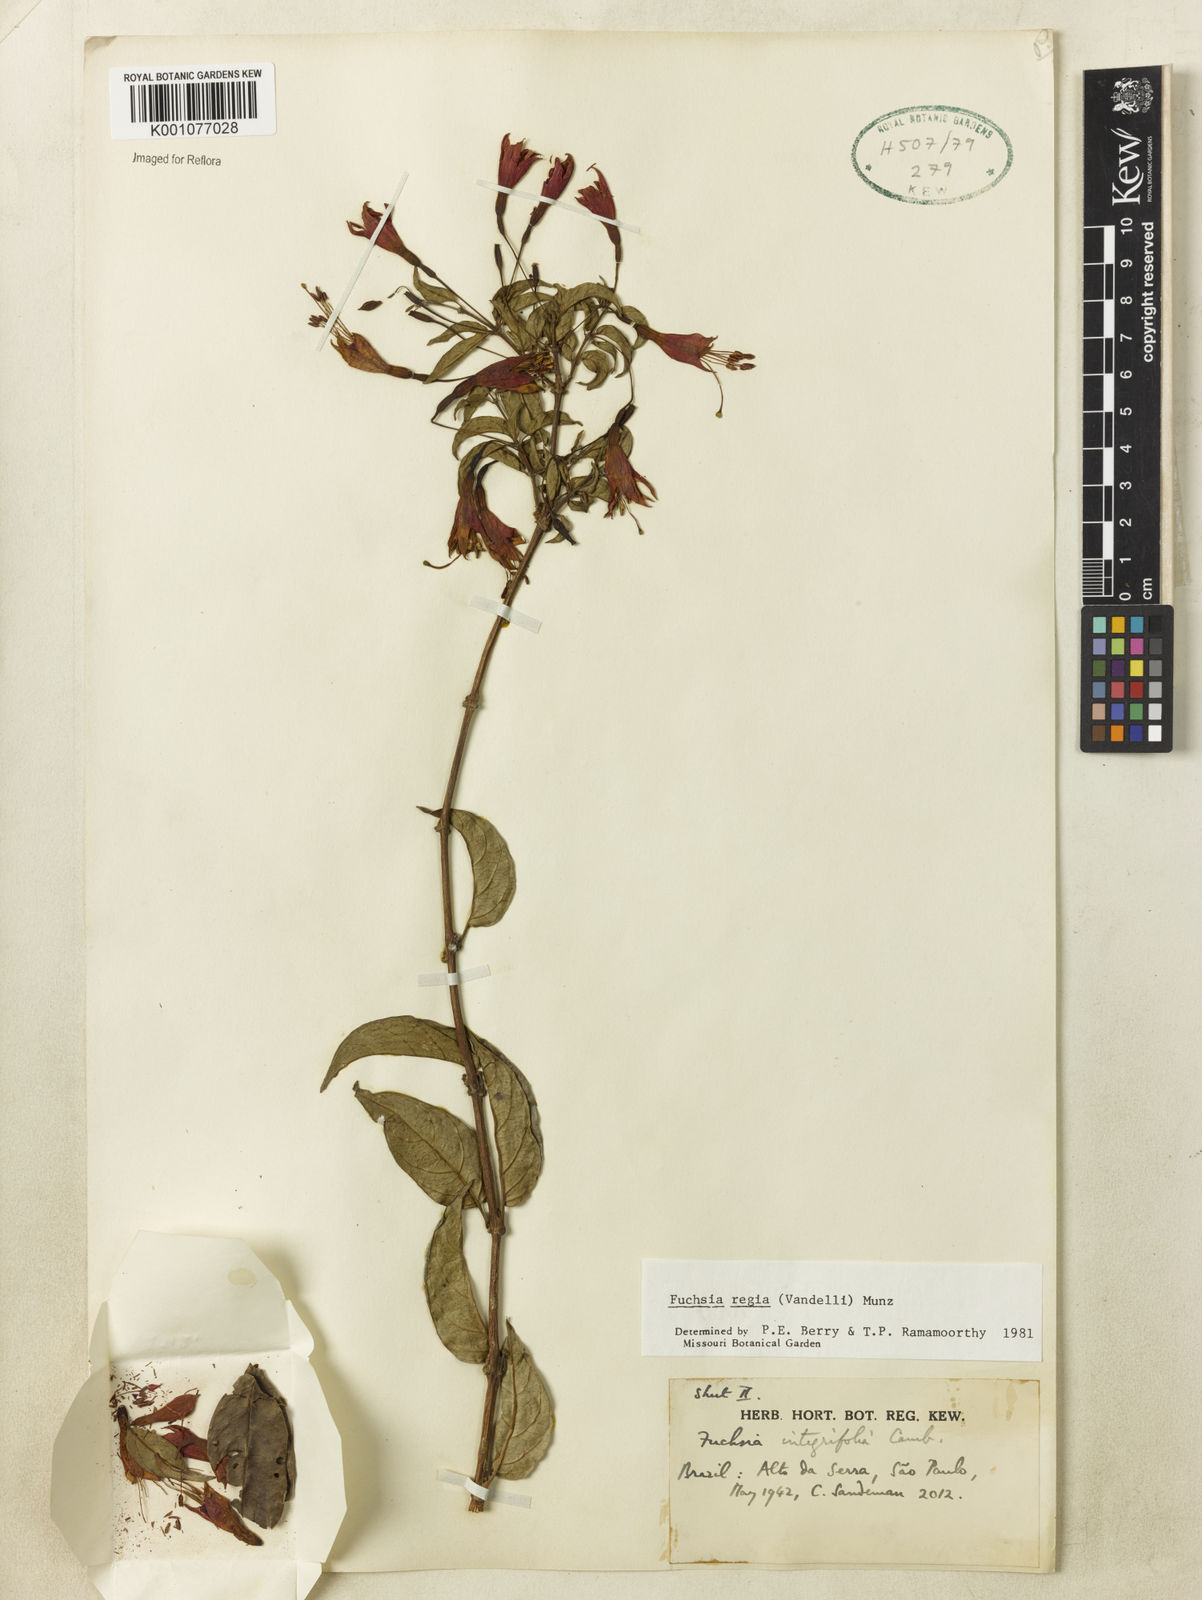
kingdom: Plantae
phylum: Tracheophyta
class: Magnoliopsida
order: Myrtales
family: Onagraceae
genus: Fuchsia
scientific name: Fuchsia regia
